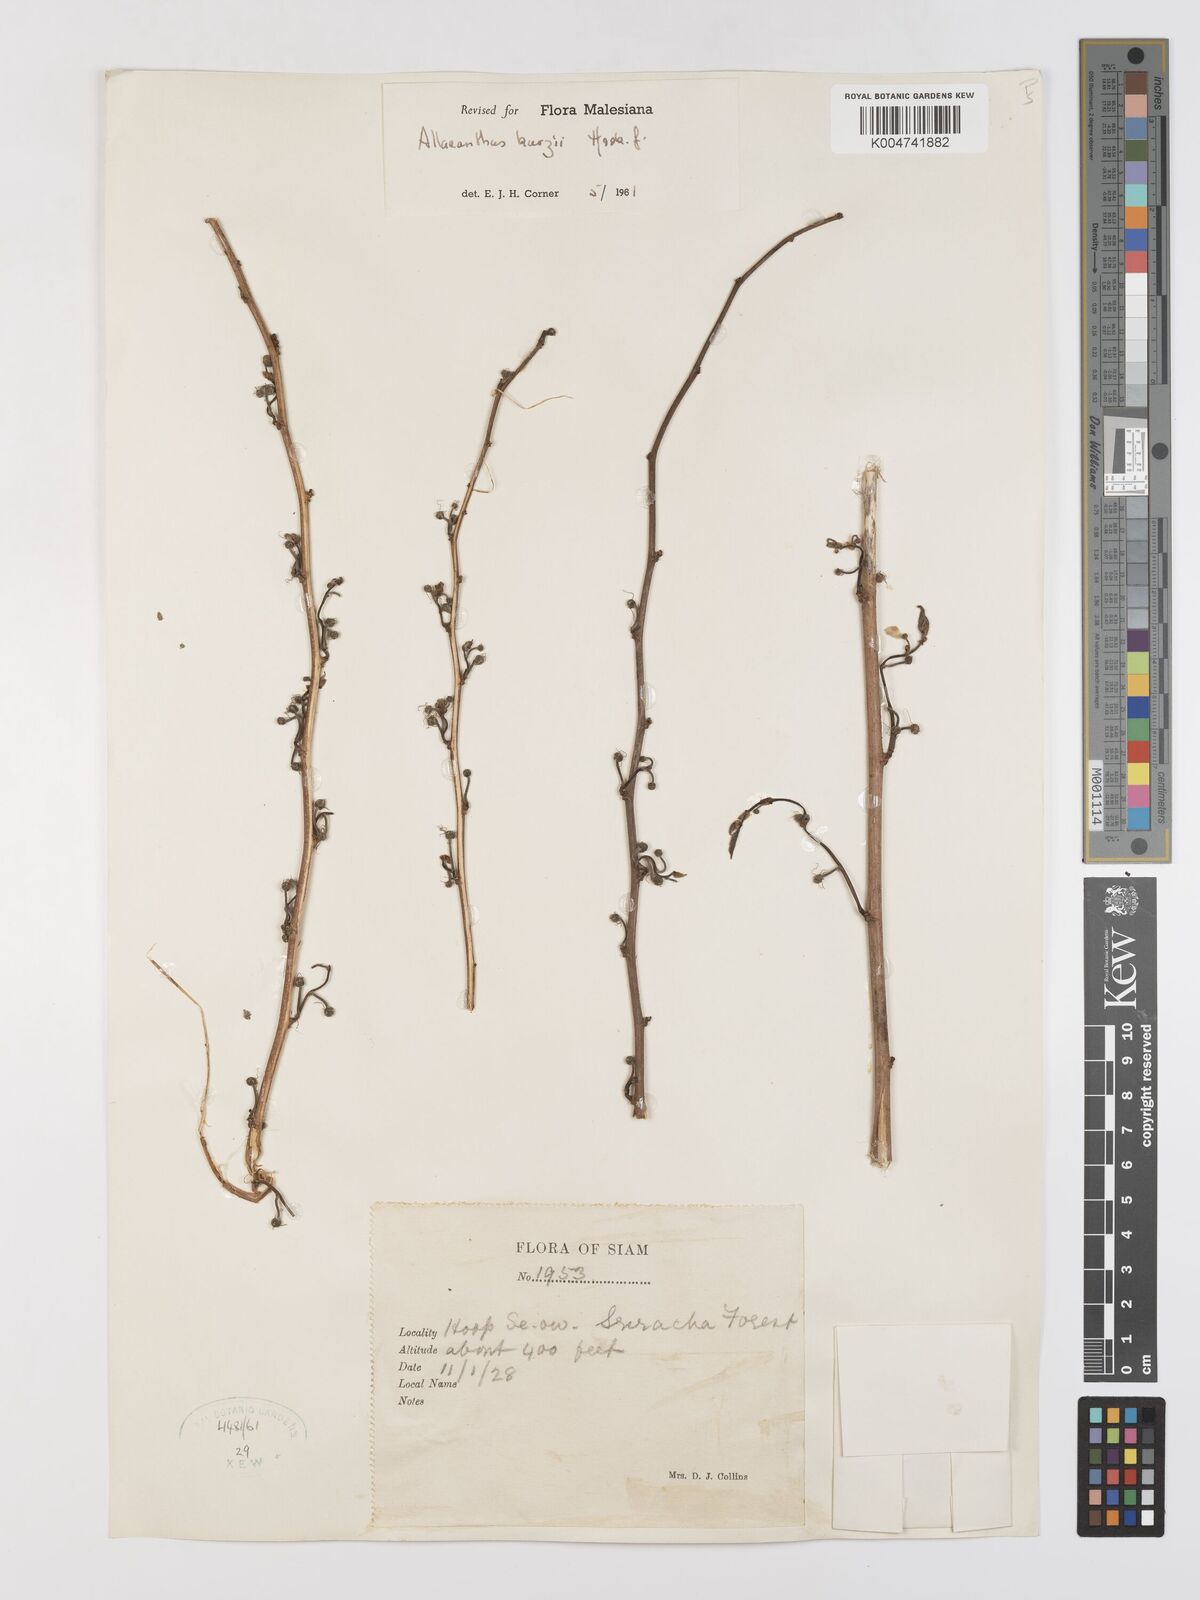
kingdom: Plantae
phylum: Tracheophyta
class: Magnoliopsida
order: Rosales
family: Moraceae
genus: Allaeanthus
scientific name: Allaeanthus kurzii
